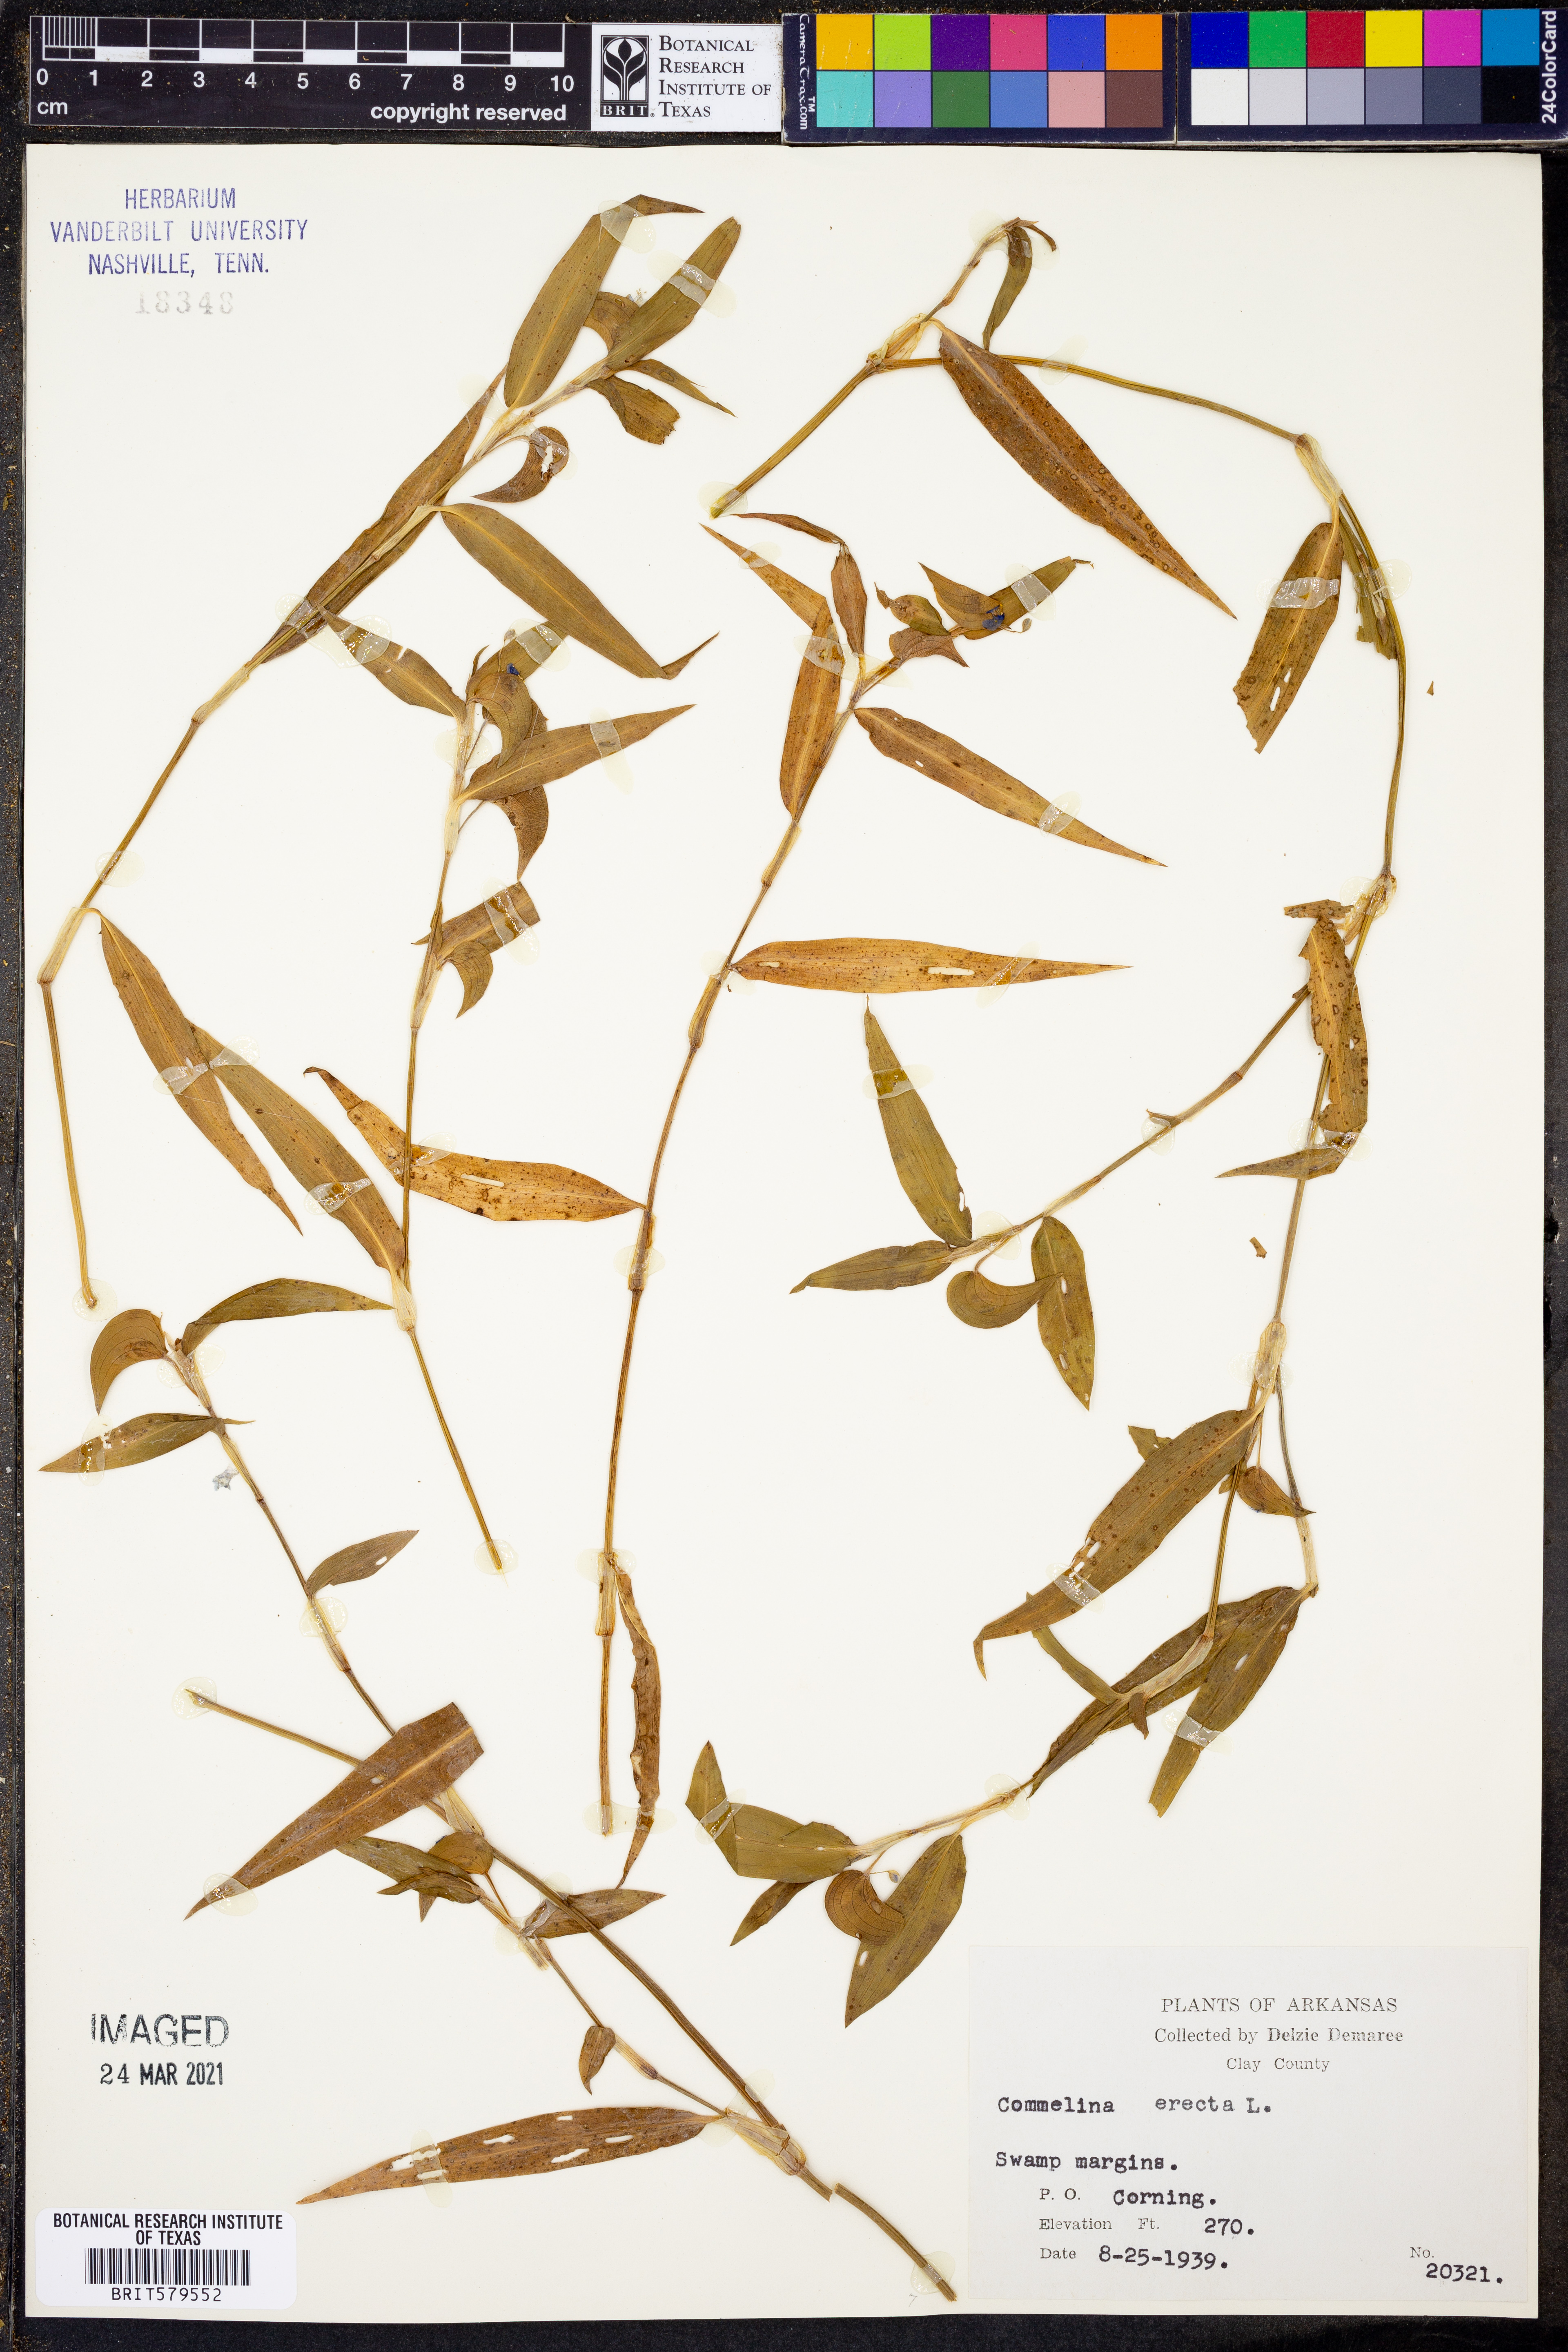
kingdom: Plantae
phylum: Tracheophyta
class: Liliopsida
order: Commelinales
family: Commelinaceae
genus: Commelina
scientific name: Commelina erecta
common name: Blousel blommetjie
